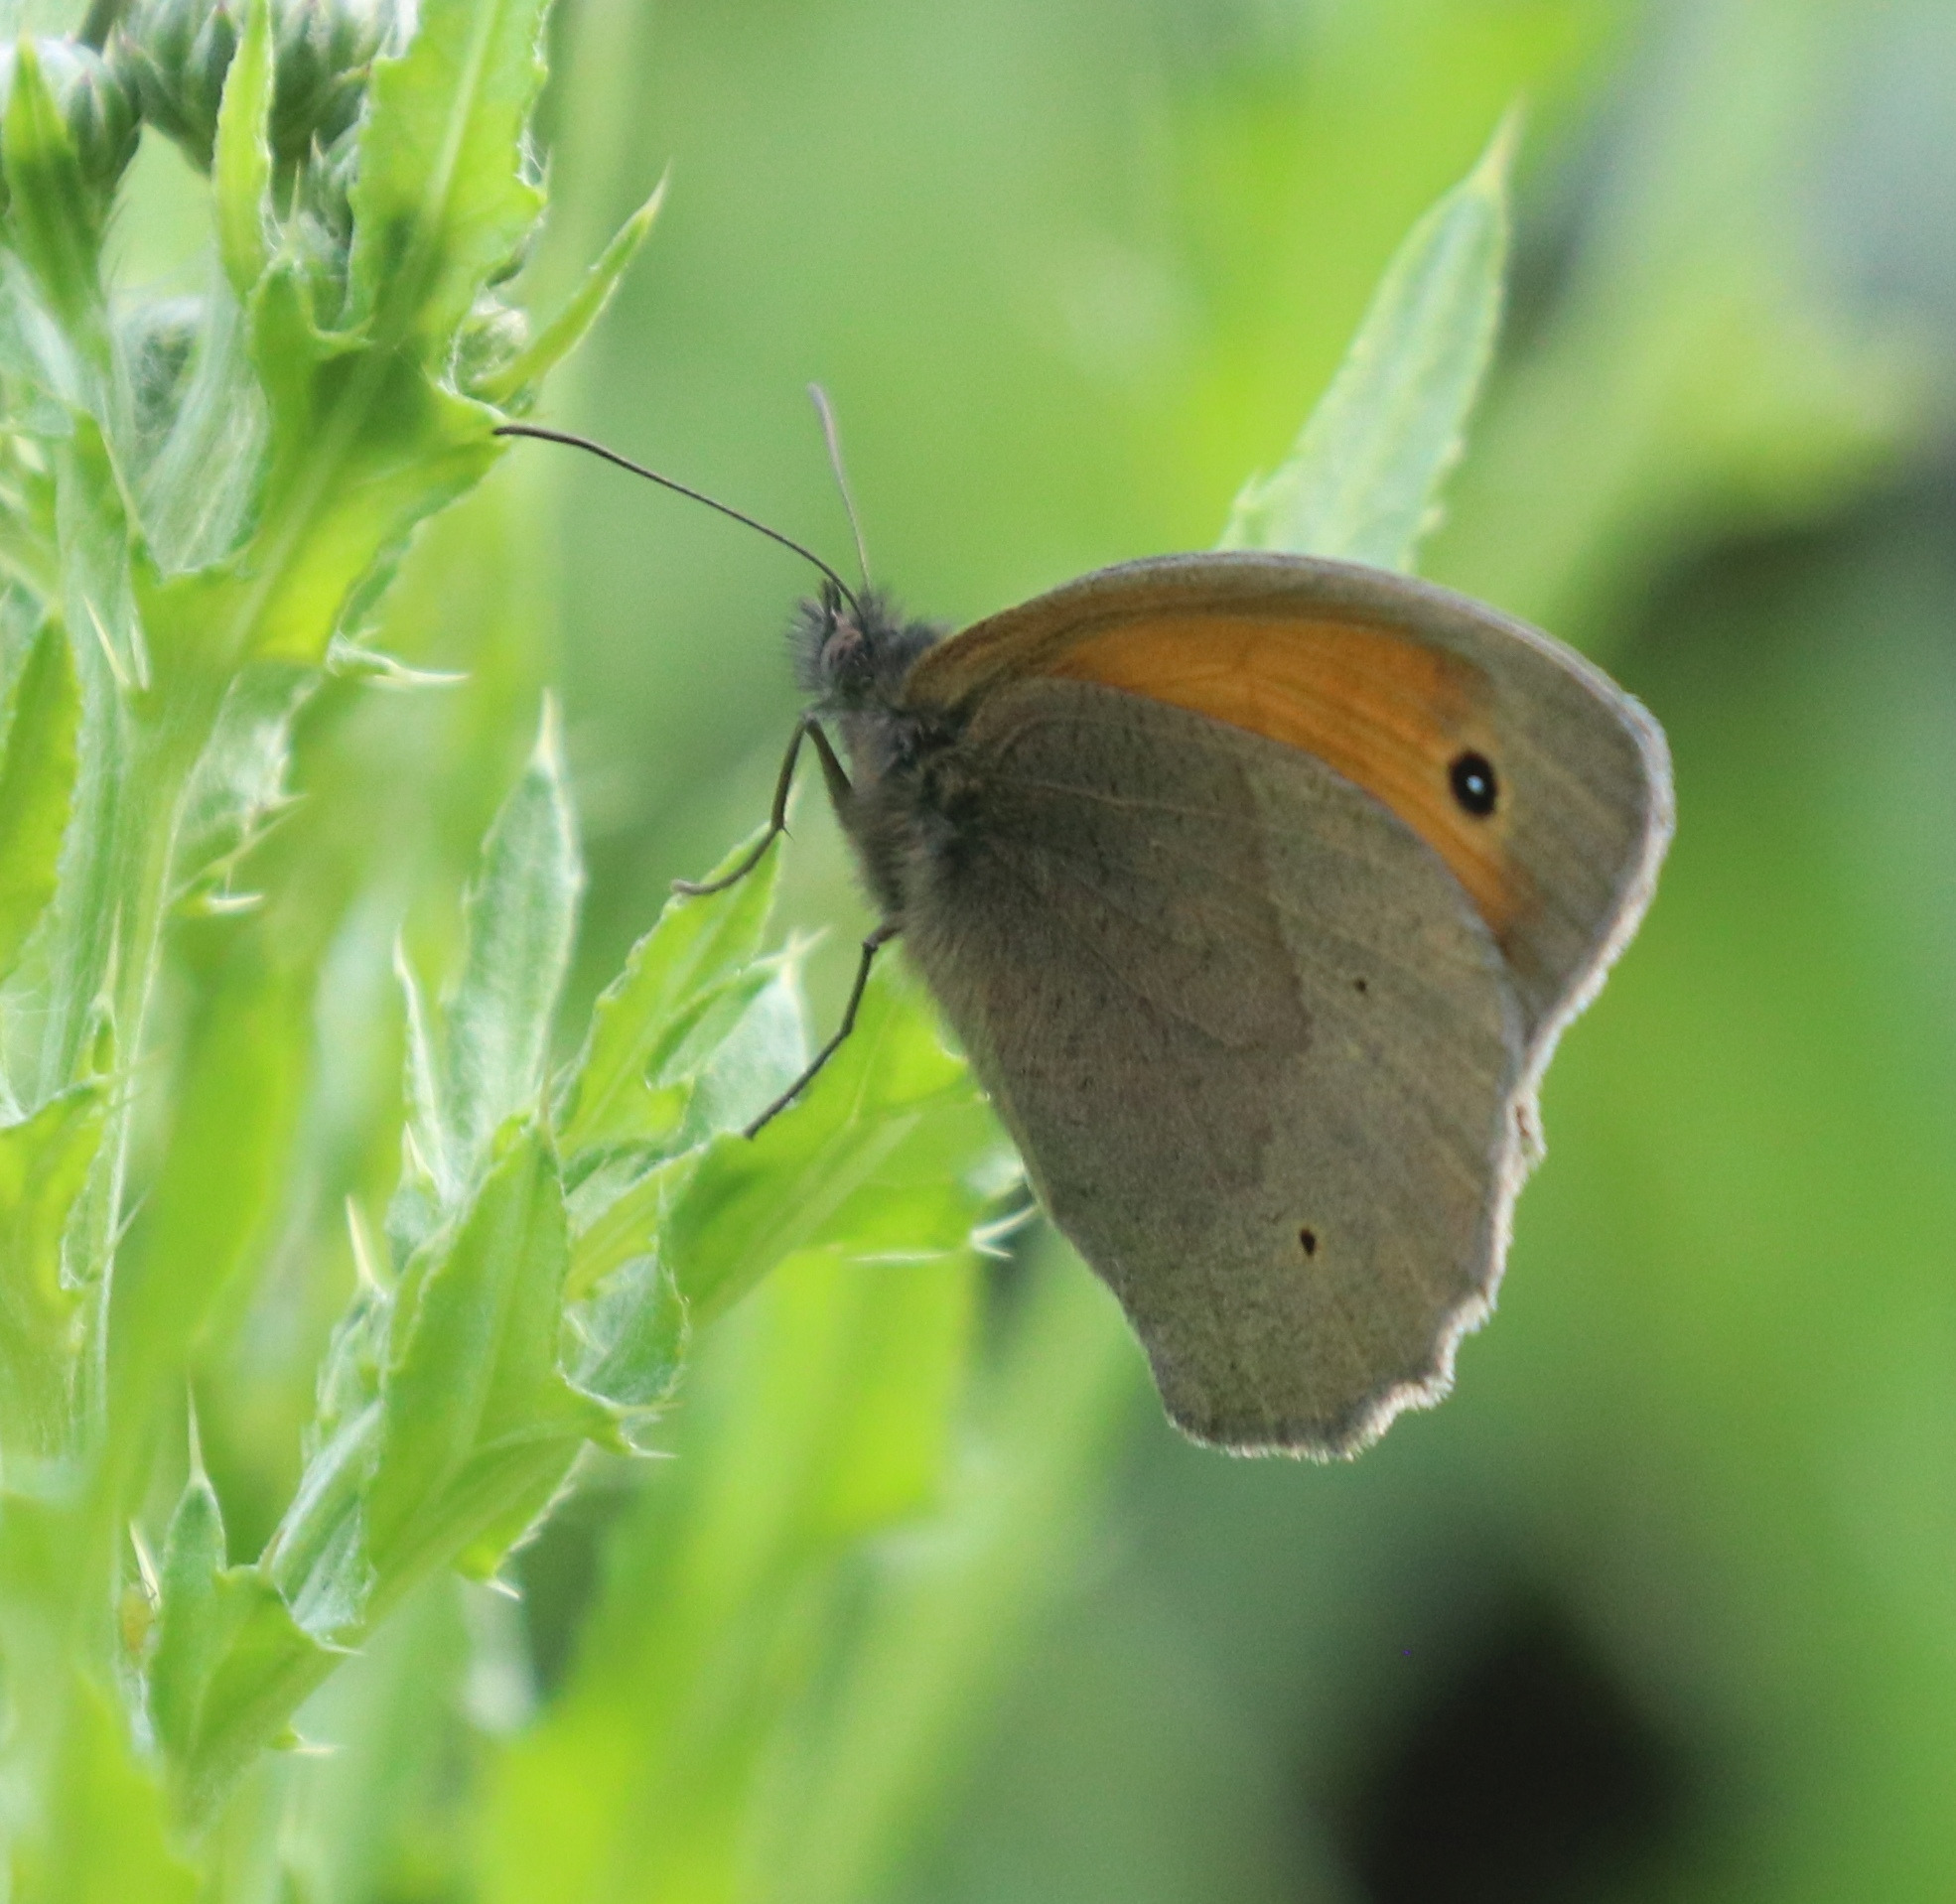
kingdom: Animalia
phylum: Arthropoda
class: Insecta
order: Lepidoptera
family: Nymphalidae
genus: Maniola
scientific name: Maniola jurtina
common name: Græsrandøje
